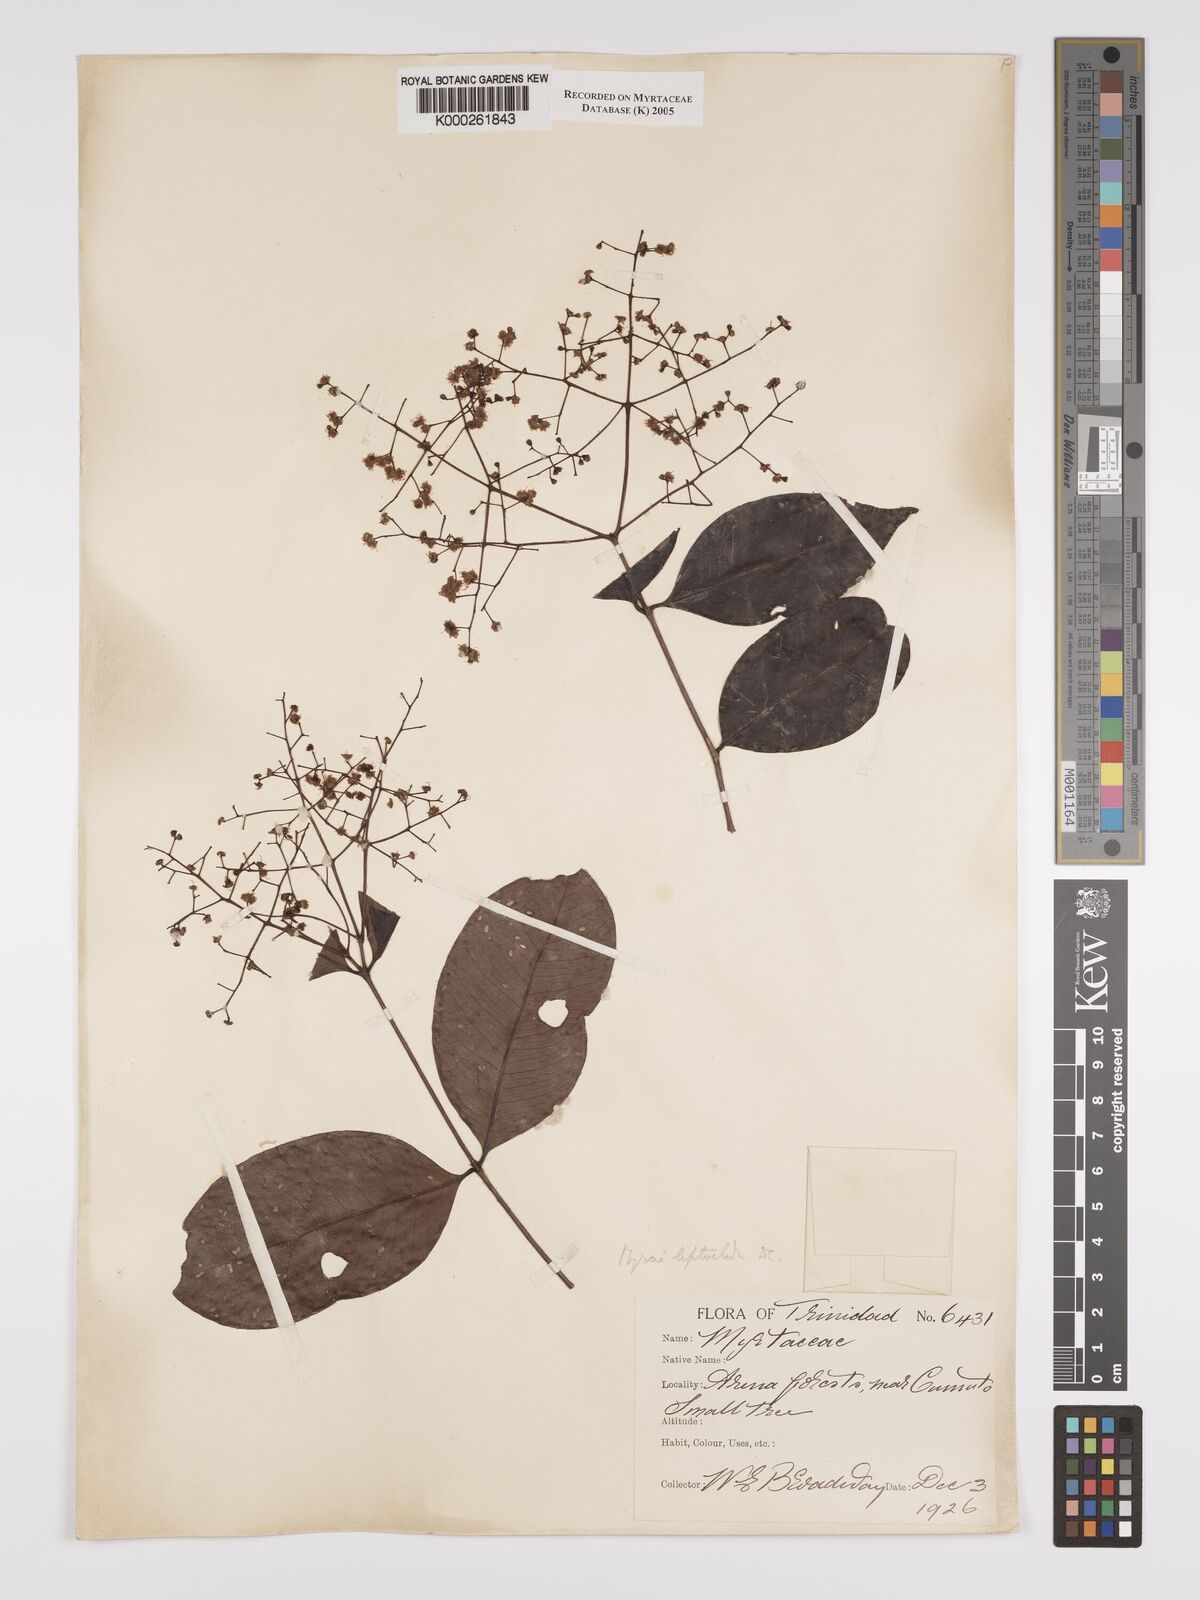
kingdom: Plantae
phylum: Tracheophyta
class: Magnoliopsida
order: Myrtales
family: Myrtaceae
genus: Myrcia
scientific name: Myrcia amazonica
